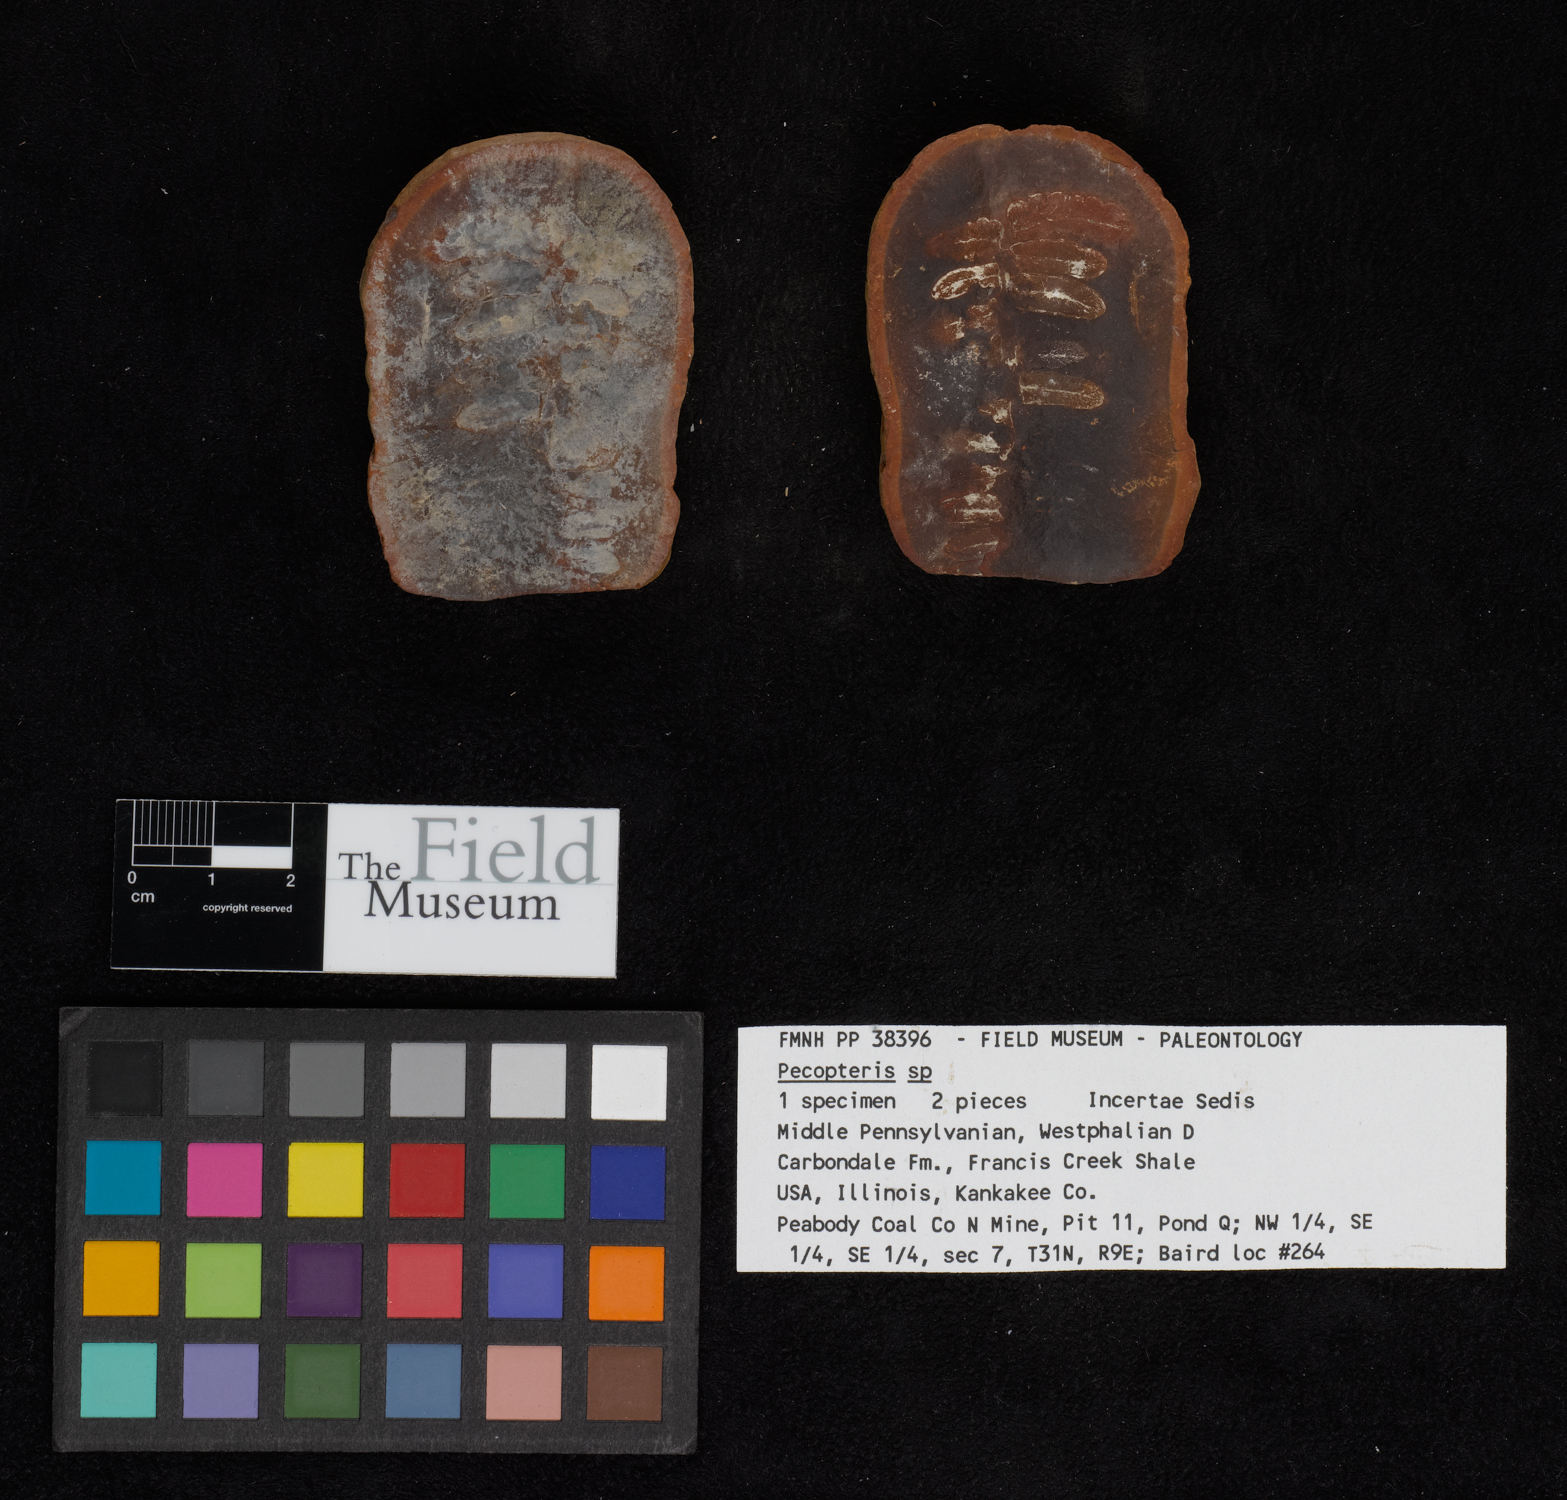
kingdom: Plantae
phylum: Tracheophyta
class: Polypodiopsida
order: Marattiales
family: Asterothecaceae
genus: Pecopteris
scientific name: Pecopteris
